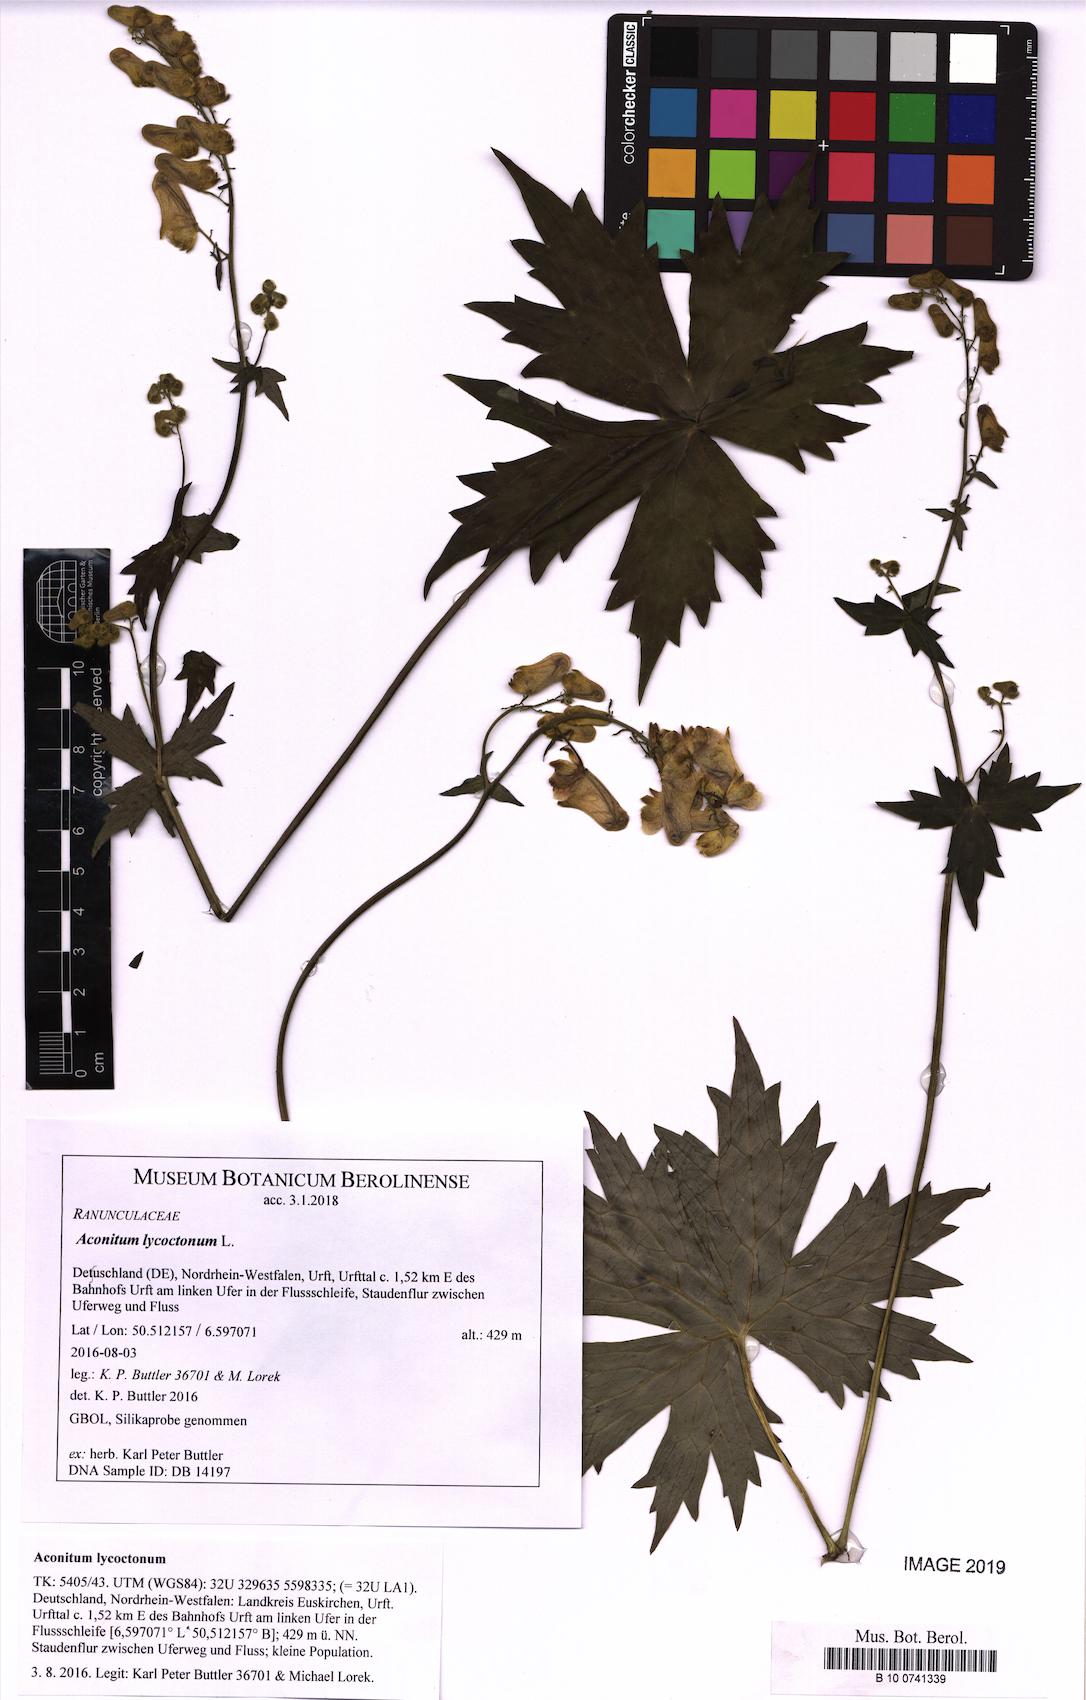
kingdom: Plantae
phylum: Tracheophyta
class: Magnoliopsida
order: Ranunculales
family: Ranunculaceae
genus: Aconitum
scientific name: Aconitum lycoctonum
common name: Wolf's-bane
